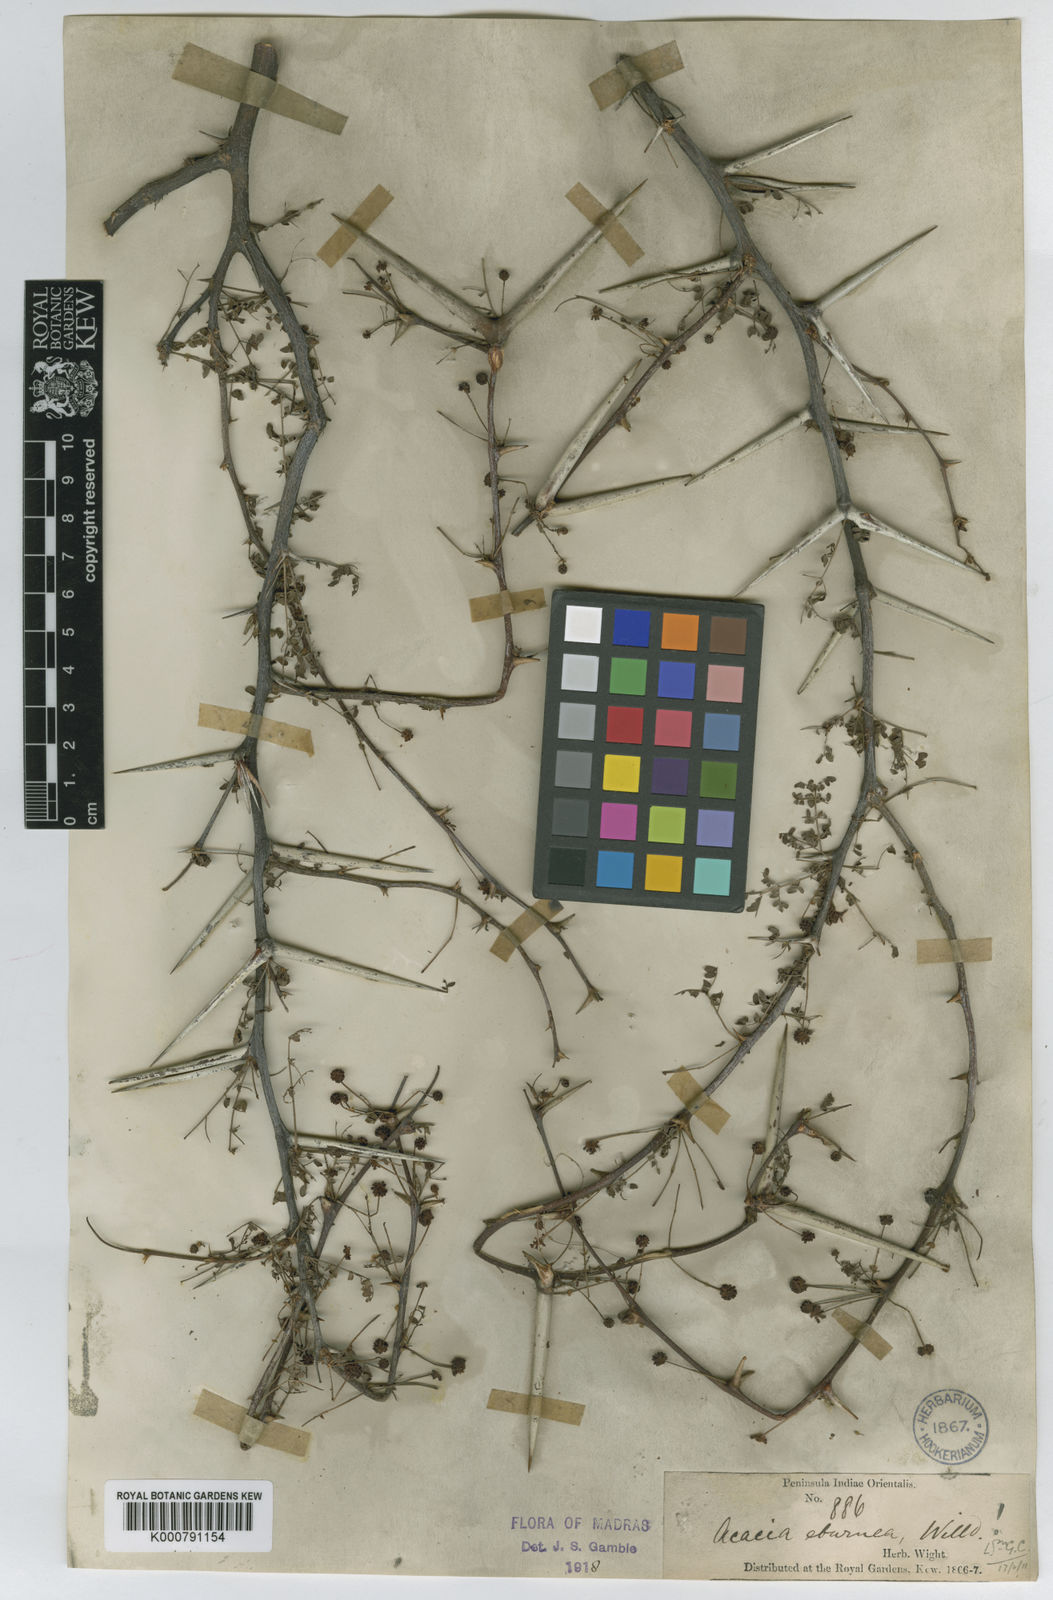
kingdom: Plantae
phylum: Tracheophyta
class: Magnoliopsida
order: Fabales
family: Fabaceae
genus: Vachellia
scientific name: Vachellia eburnea
